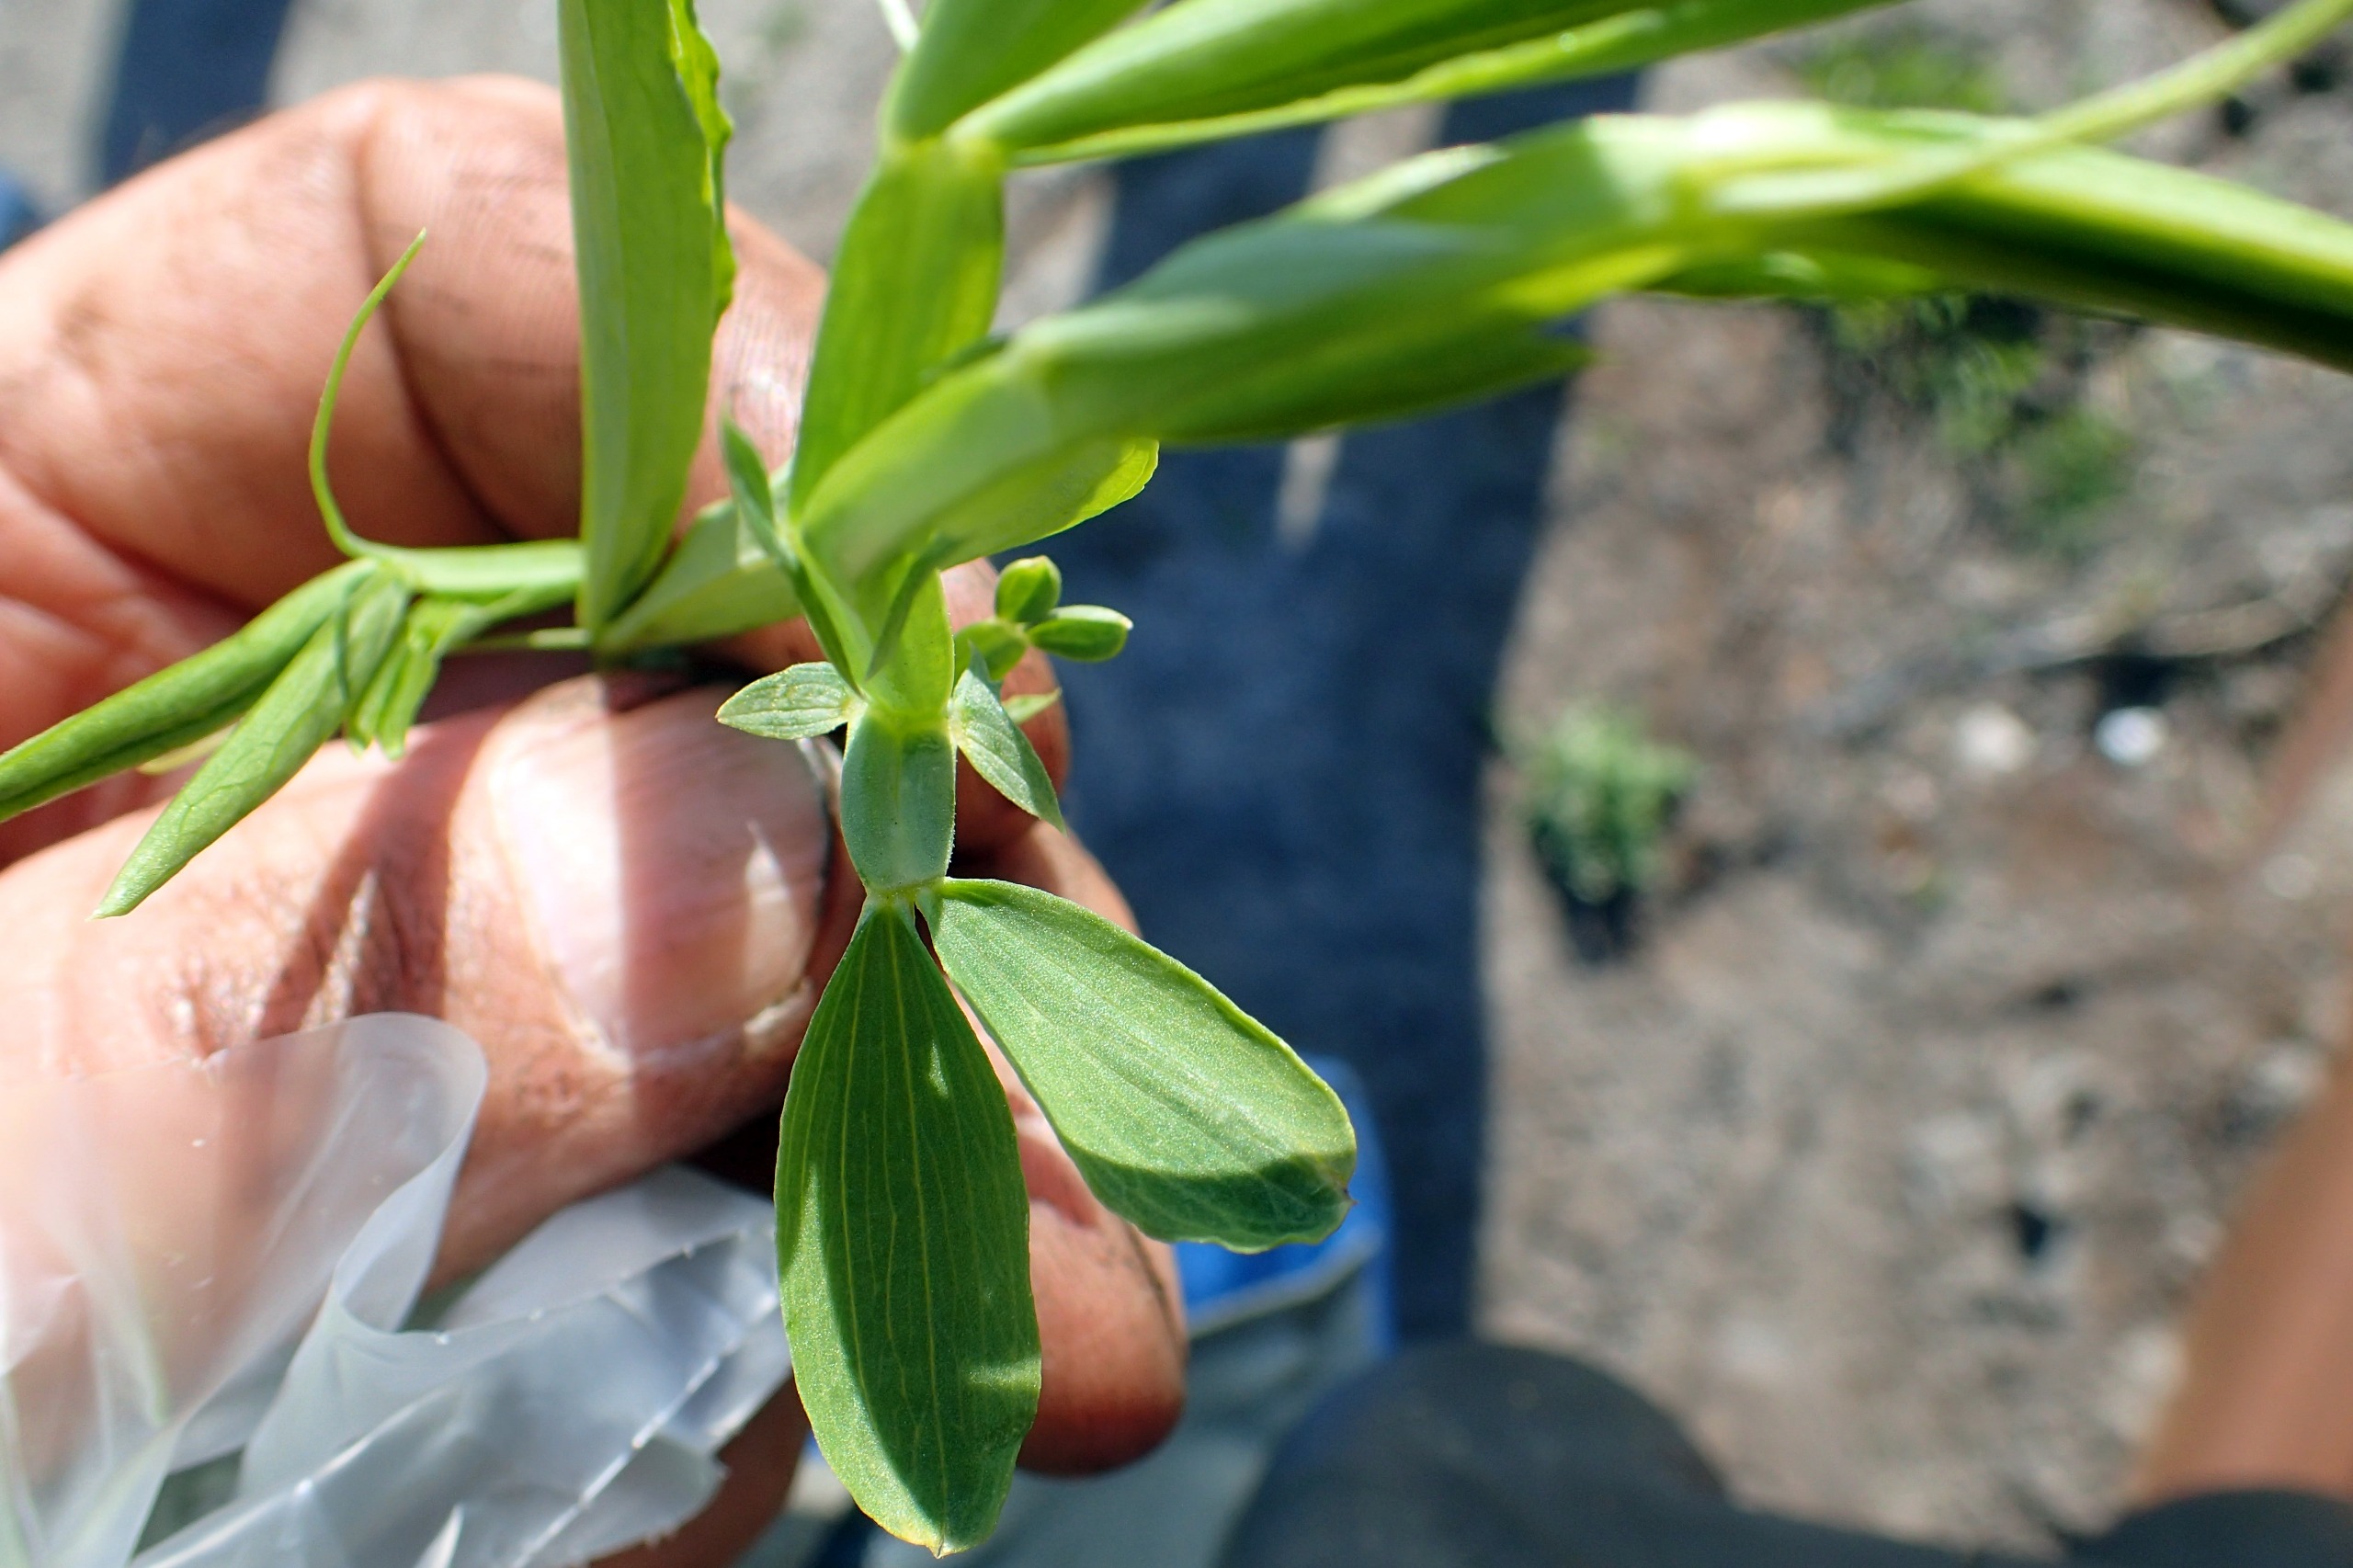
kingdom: Plantae
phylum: Tracheophyta
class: Magnoliopsida
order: Fabales
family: Fabaceae
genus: Lathyrus
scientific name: Lathyrus latifolius
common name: Flerårig ærteblomst
